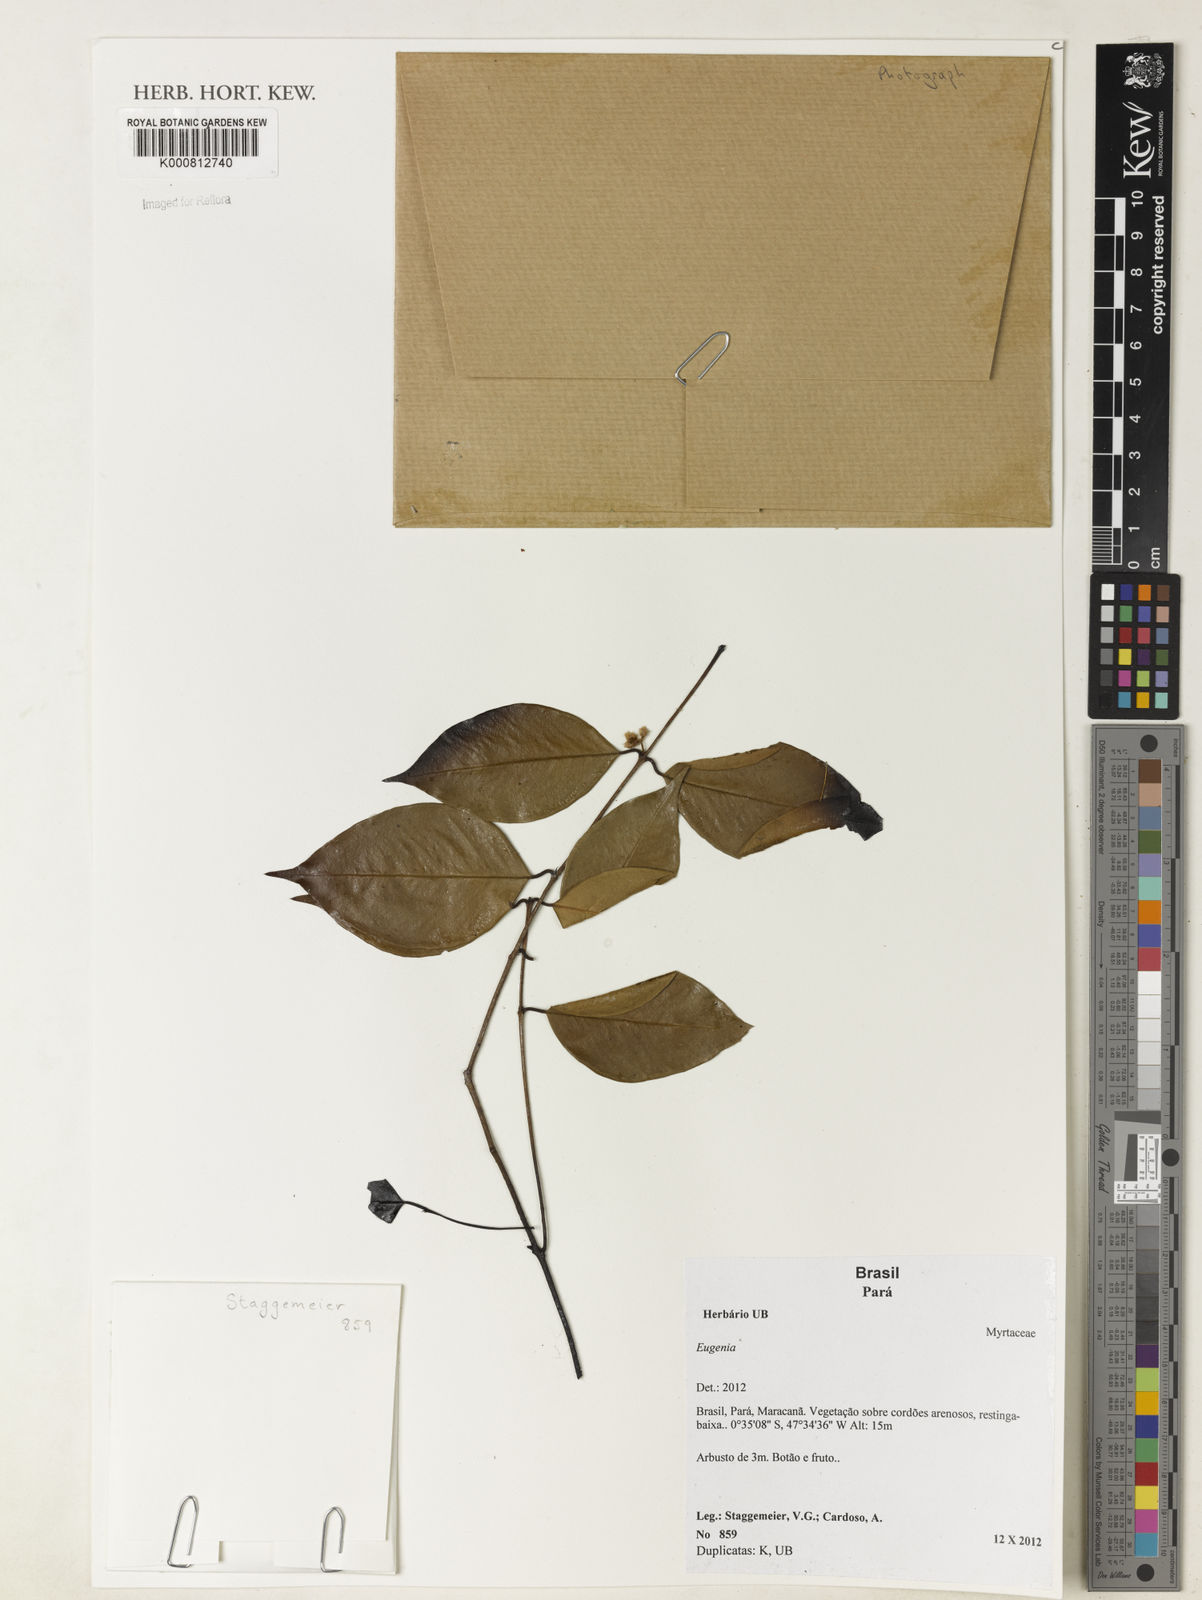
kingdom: Plantae
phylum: Tracheophyta
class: Magnoliopsida
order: Myrtales
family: Myrtaceae
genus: Eugenia
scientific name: Eugenia
